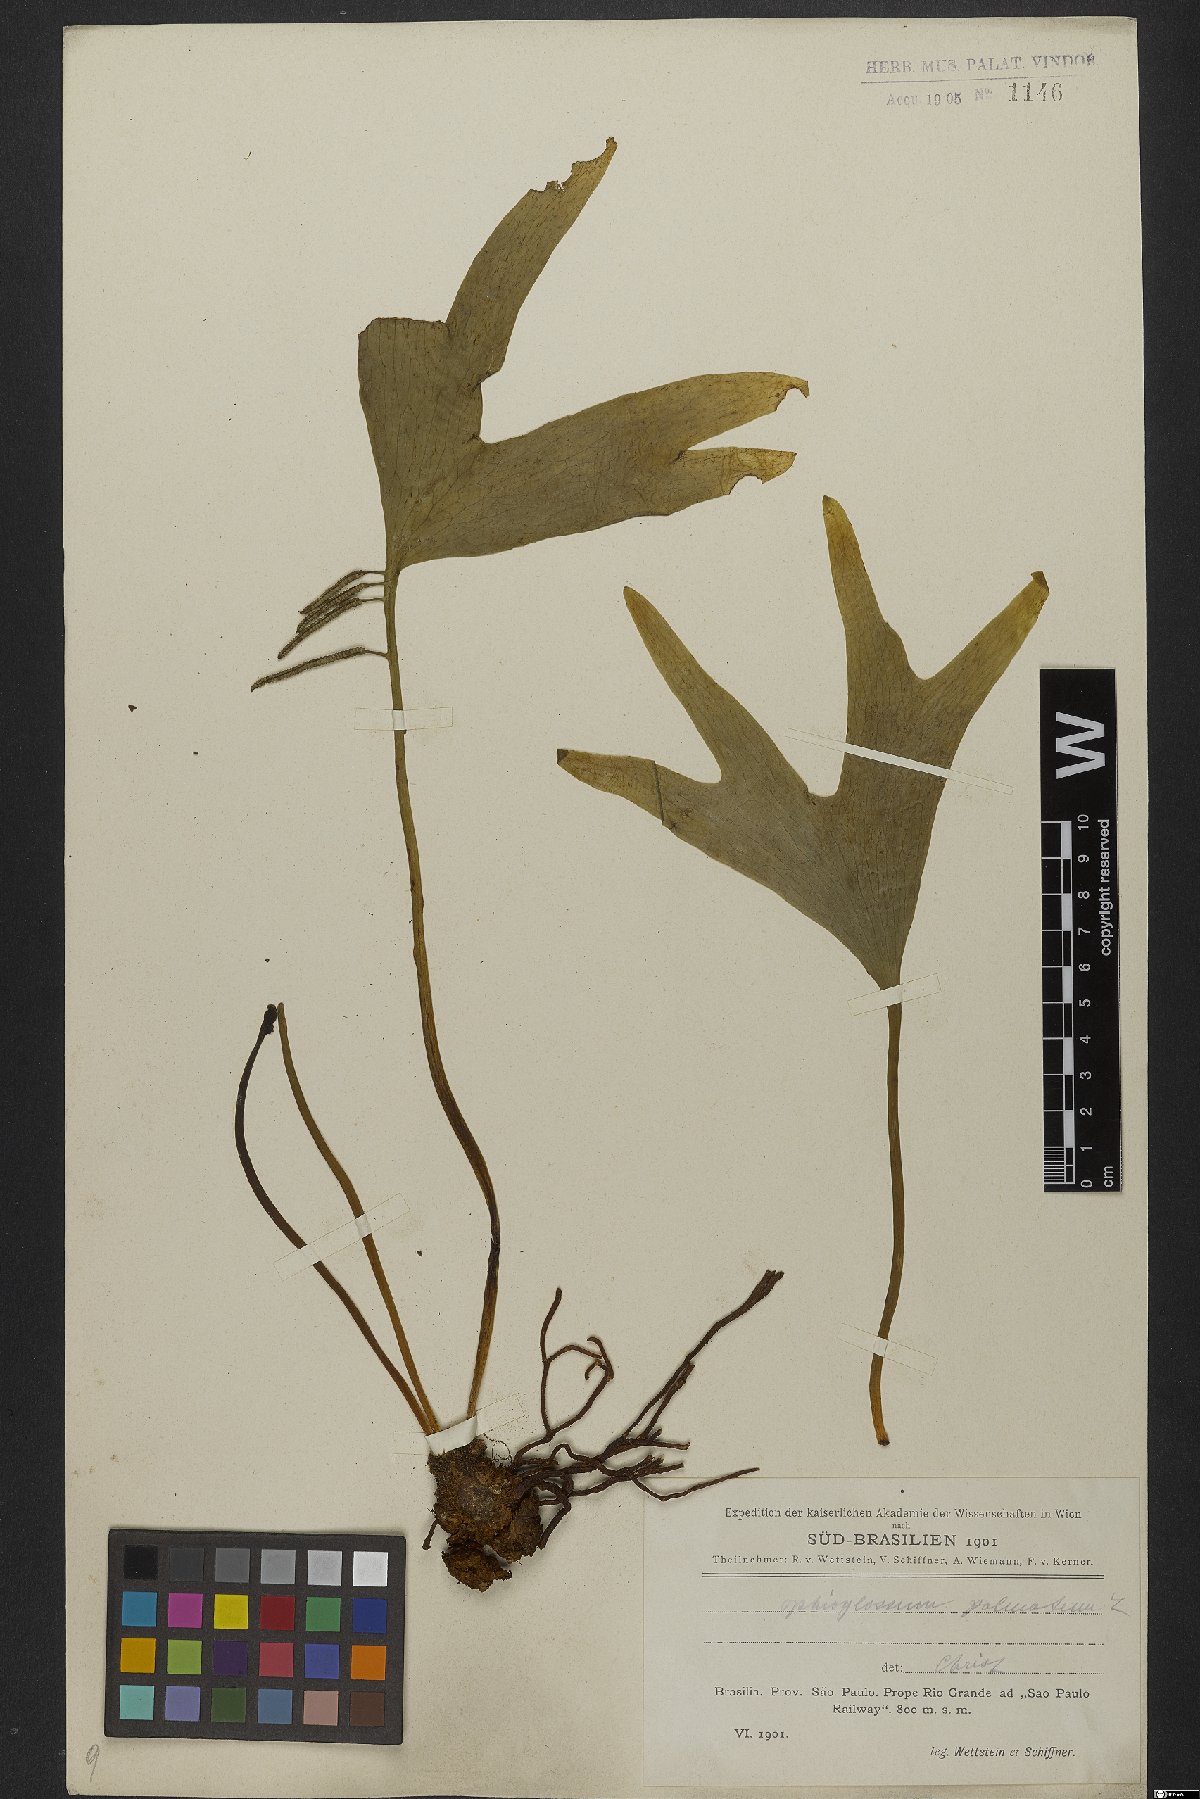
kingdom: Plantae
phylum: Tracheophyta
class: Polypodiopsida
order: Ophioglossales
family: Ophioglossaceae
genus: Cheiroglossa
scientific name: Cheiroglossa palmata
